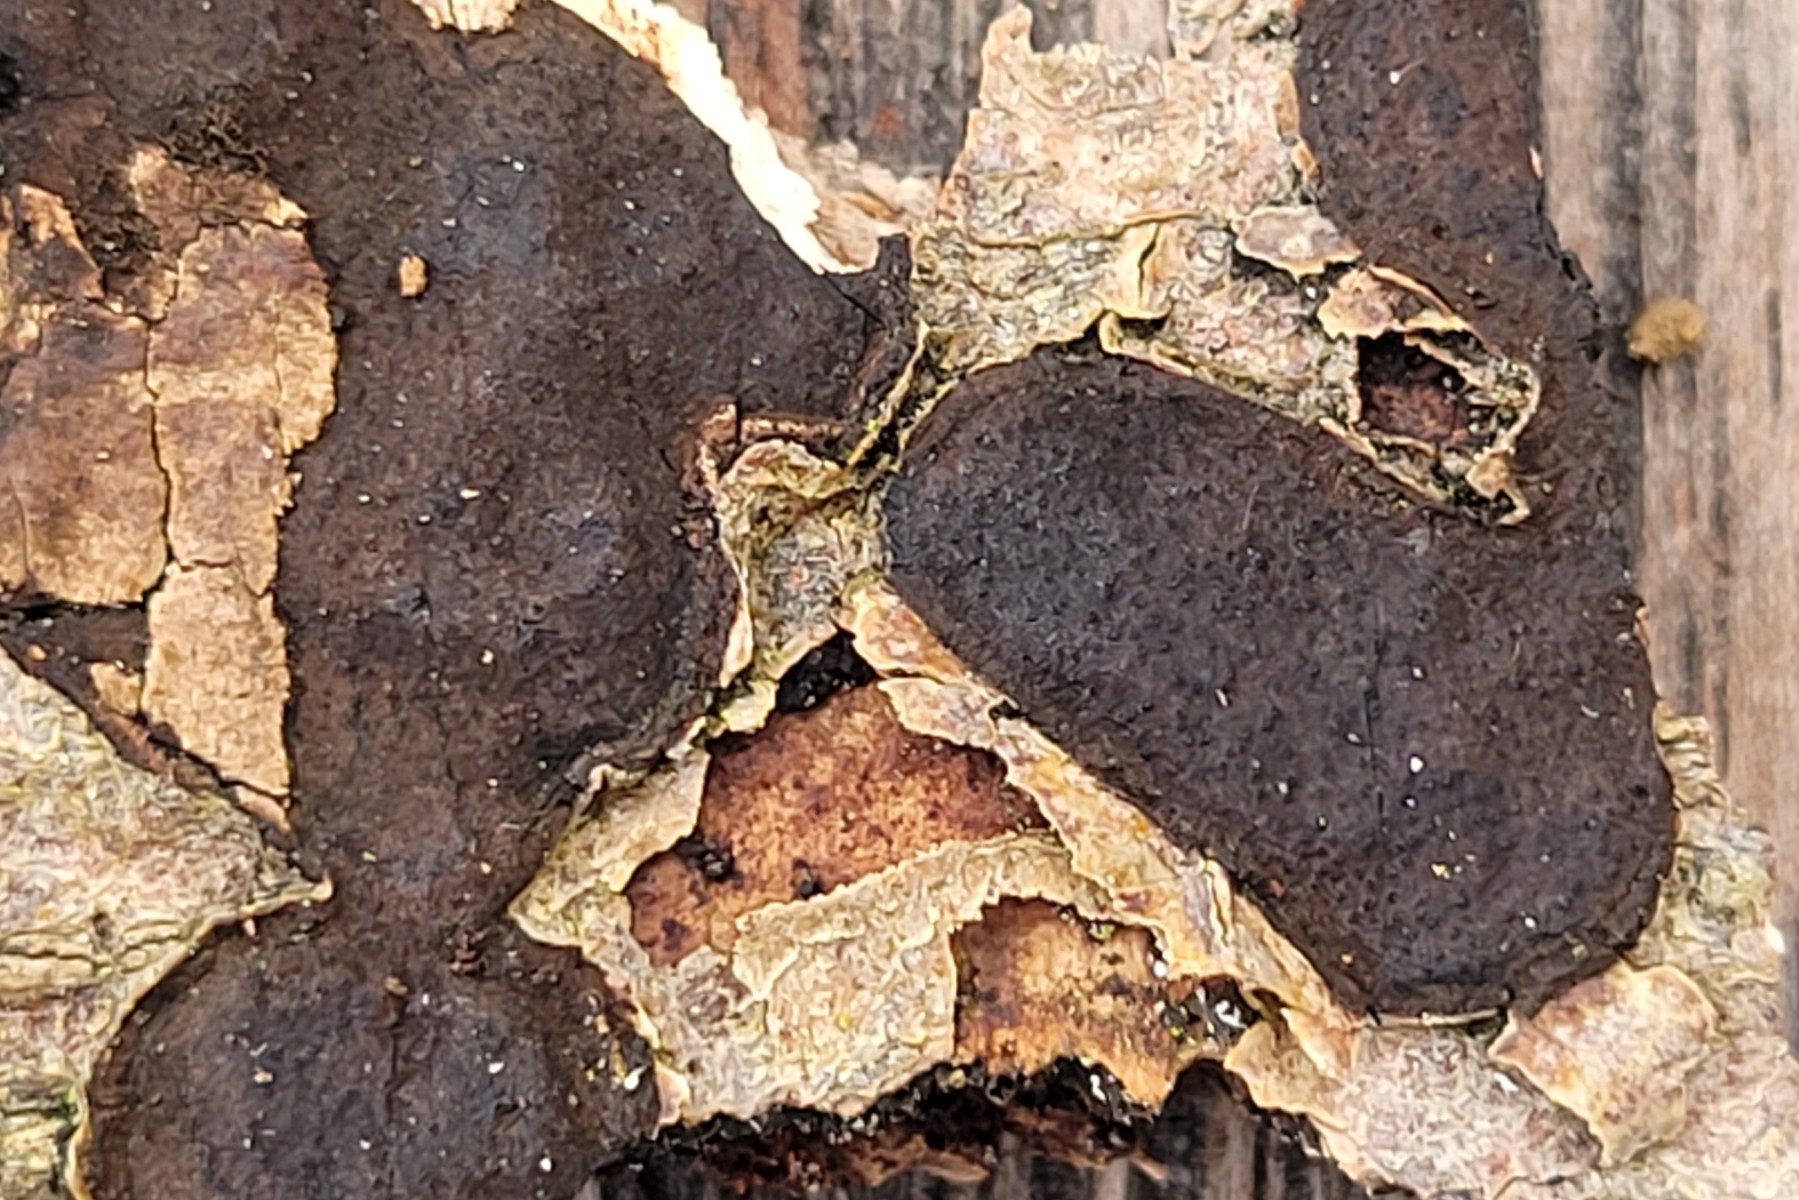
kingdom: Fungi
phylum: Ascomycota
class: Sordariomycetes
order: Xylariales
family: Graphostromataceae
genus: Biscogniauxia
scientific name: Biscogniauxia nummularia
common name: bøge-kulskive
